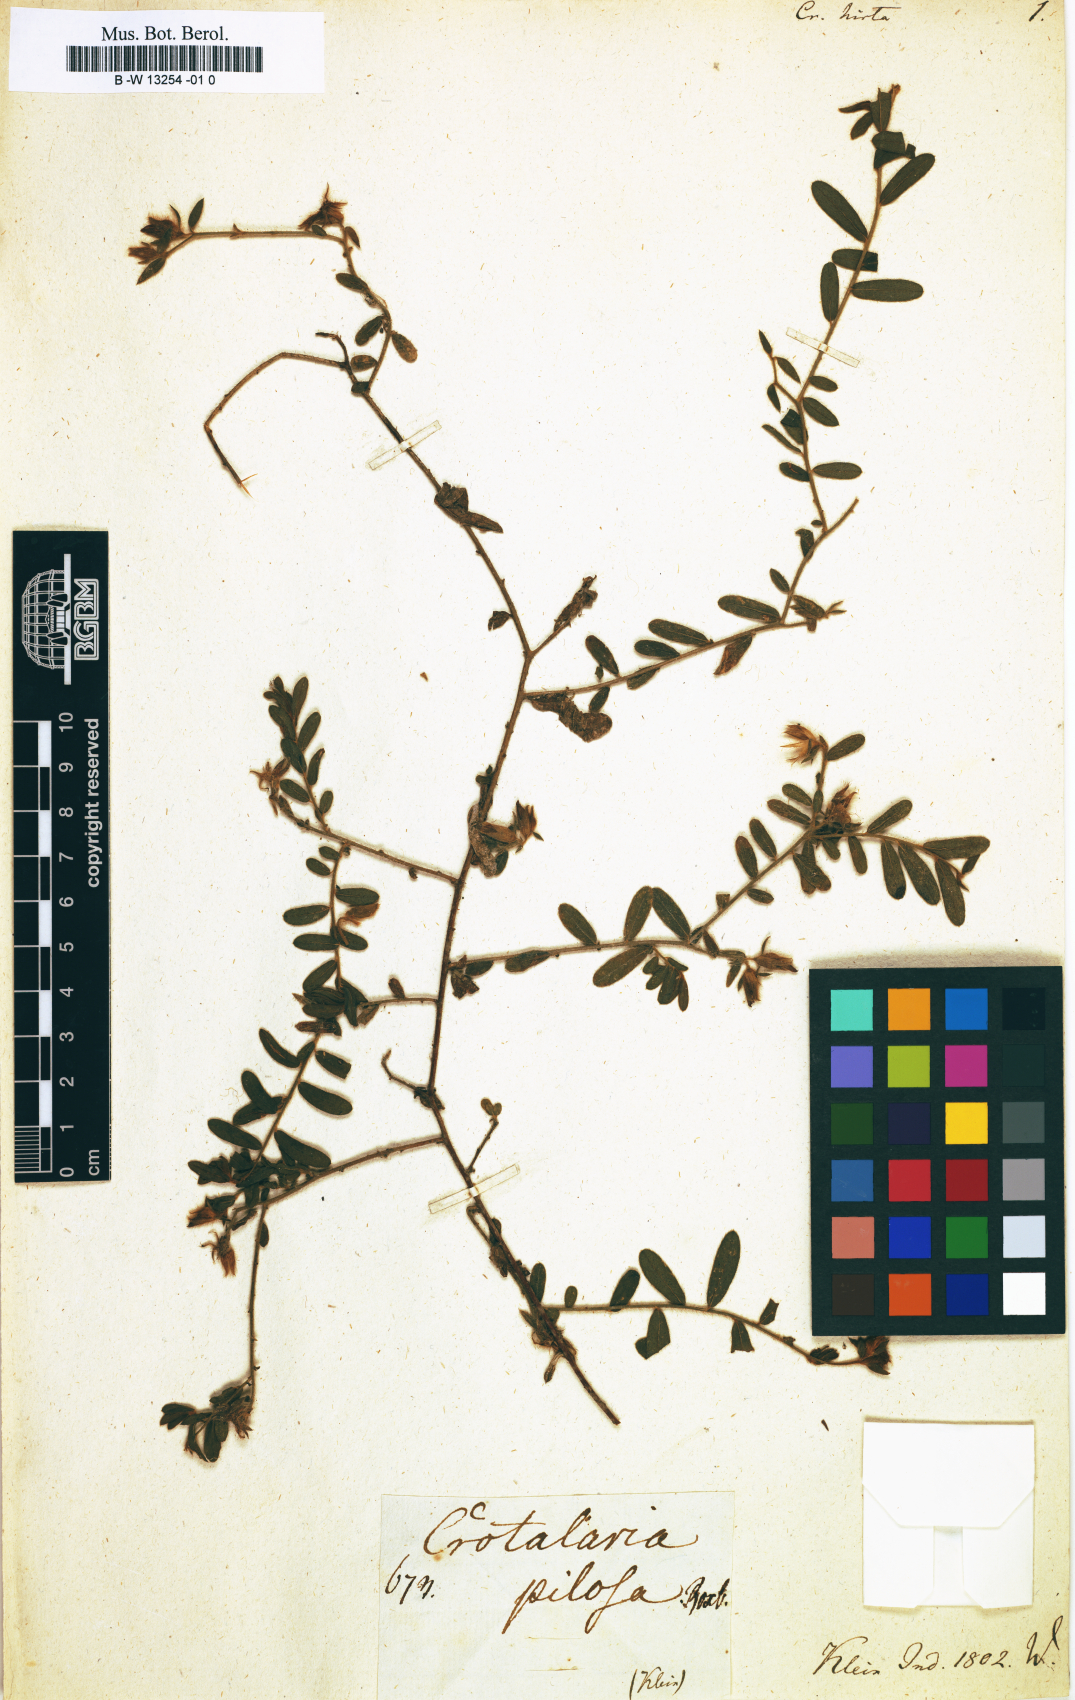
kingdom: Plantae
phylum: Tracheophyta
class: Magnoliopsida
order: Fabales
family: Fabaceae
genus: Crotalaria
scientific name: Crotalaria hirta
